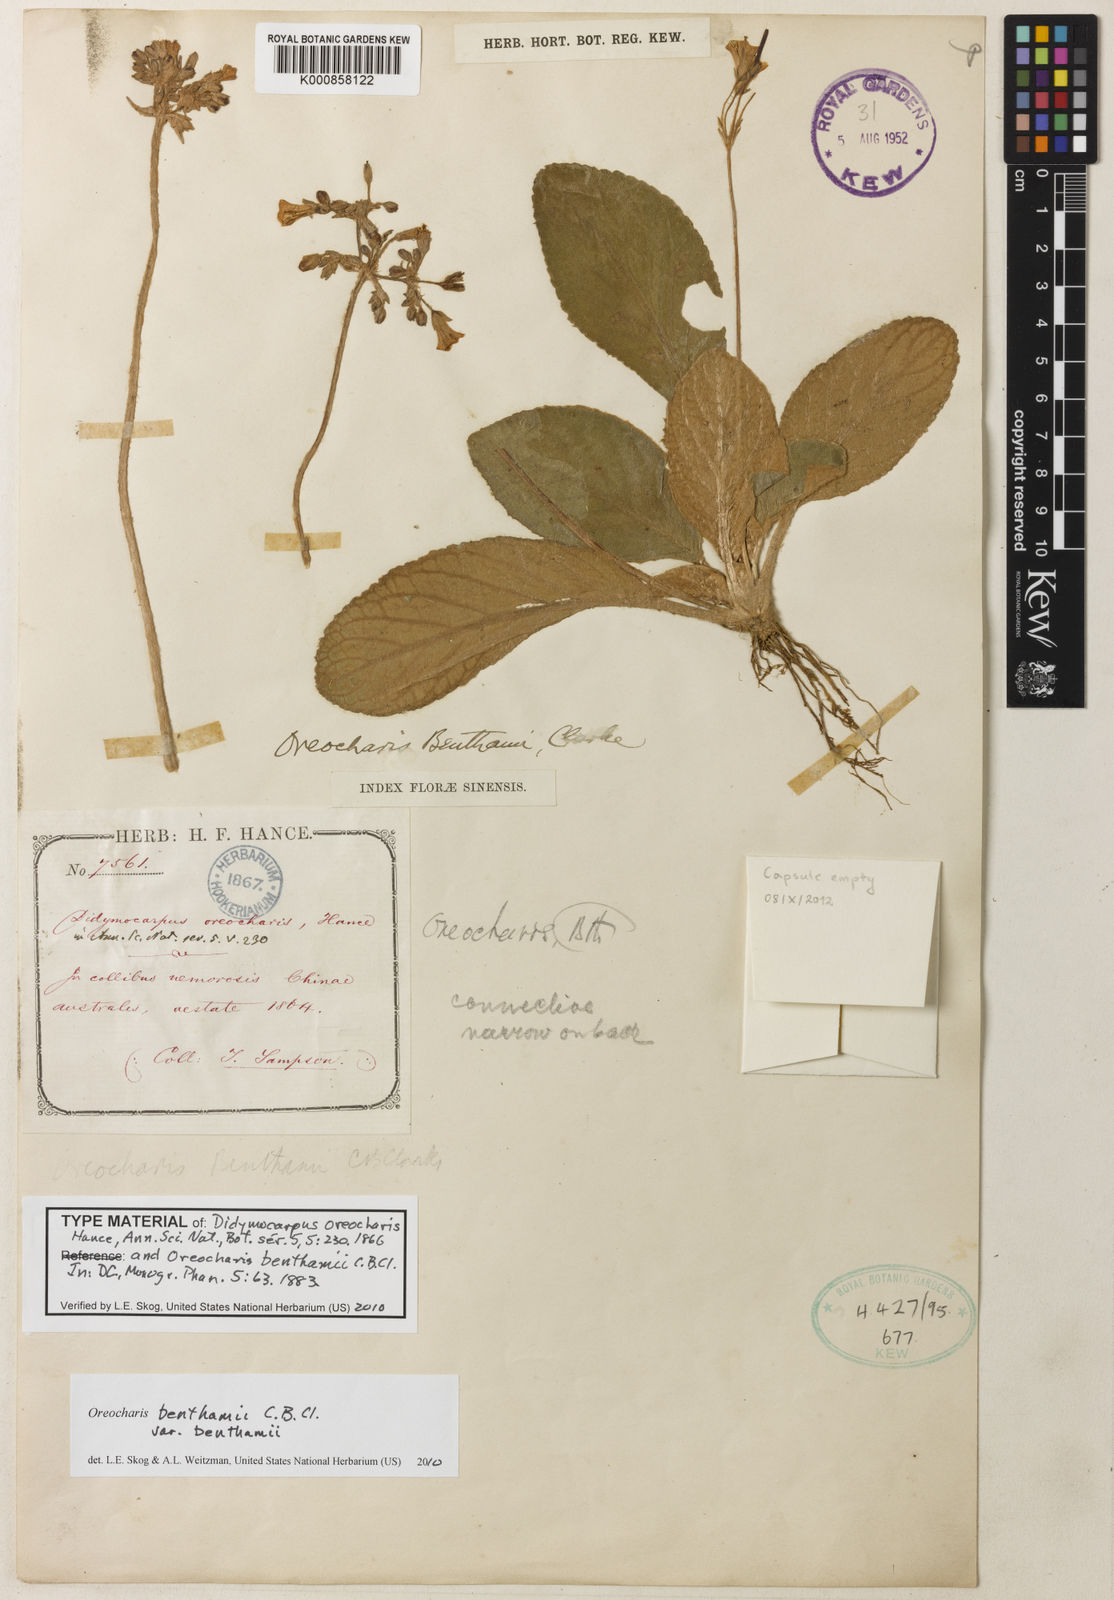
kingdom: Plantae
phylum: Tracheophyta
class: Magnoliopsida
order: Lamiales
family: Gesneriaceae
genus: Oreocharis
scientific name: Oreocharis benthamii
